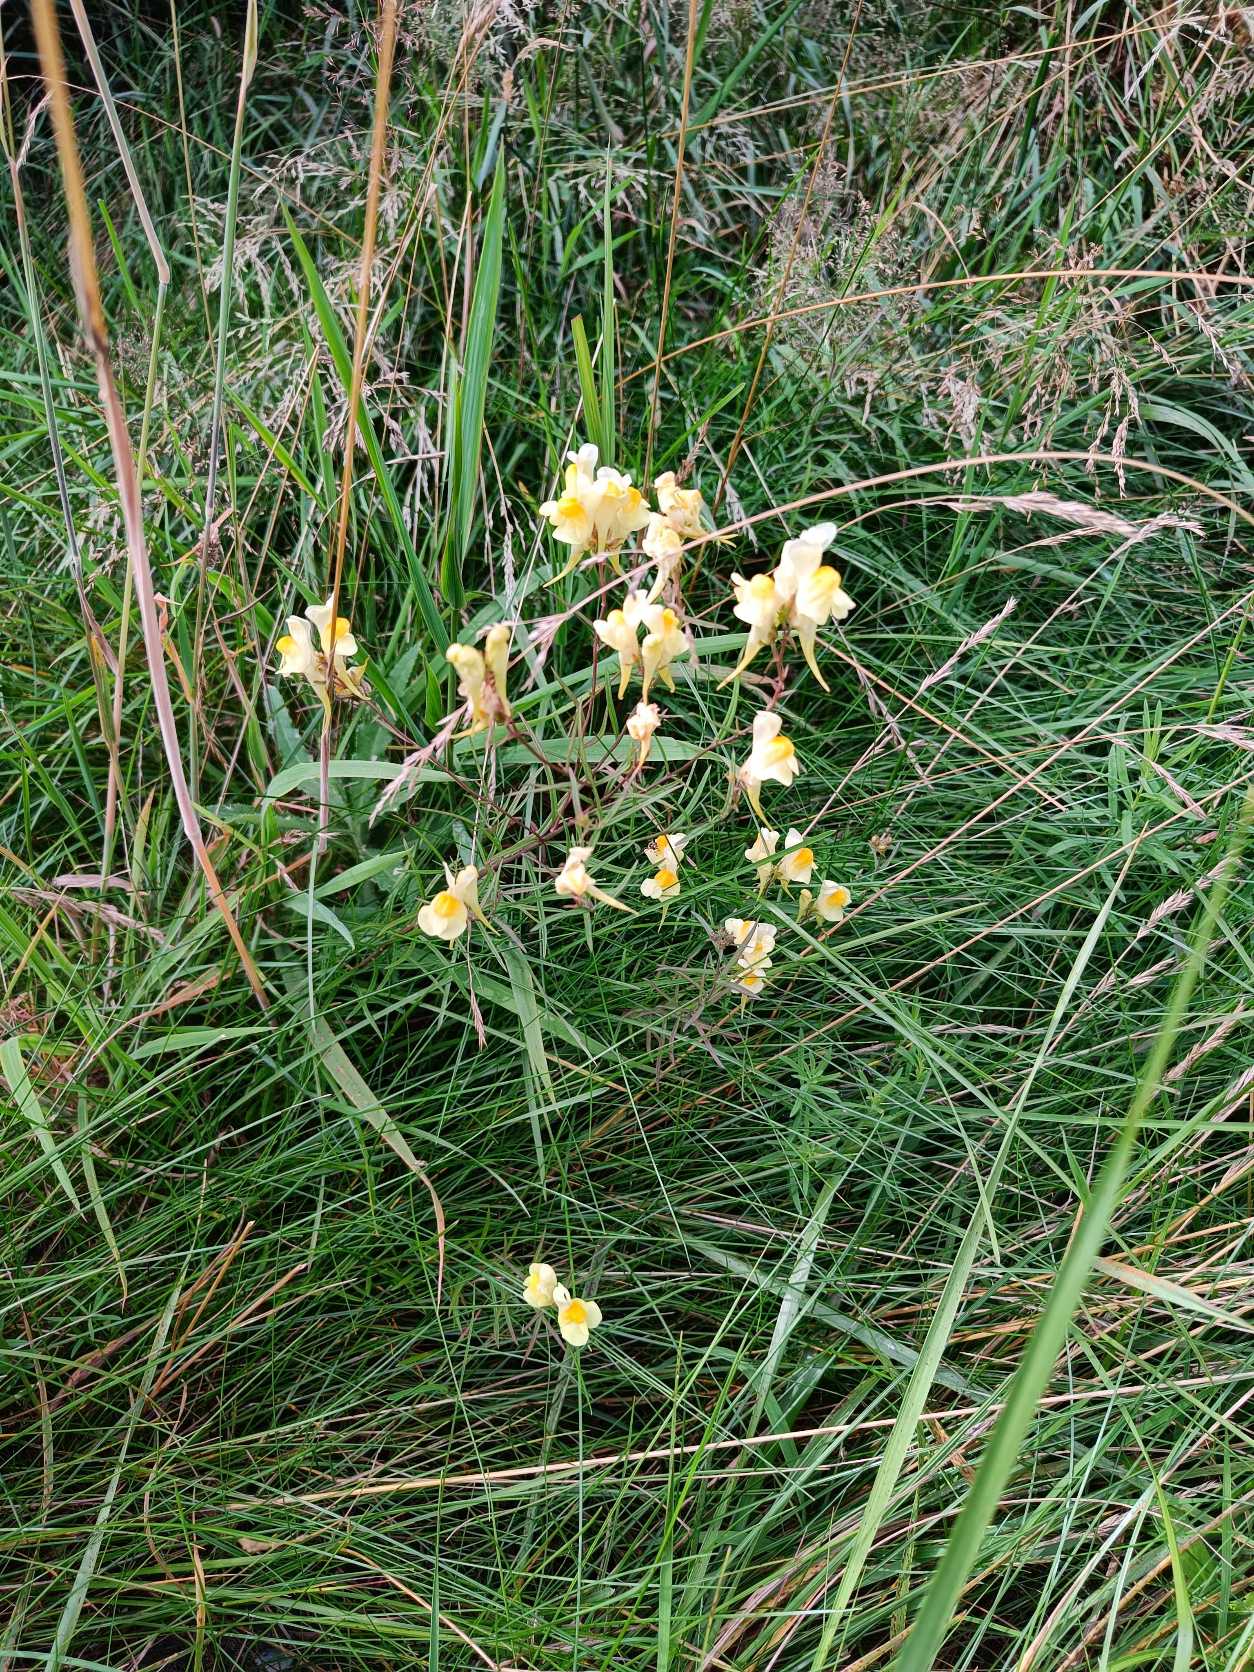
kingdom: Plantae
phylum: Tracheophyta
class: Magnoliopsida
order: Lamiales
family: Plantaginaceae
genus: Linaria
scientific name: Linaria vulgaris
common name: Almindelig torskemund
